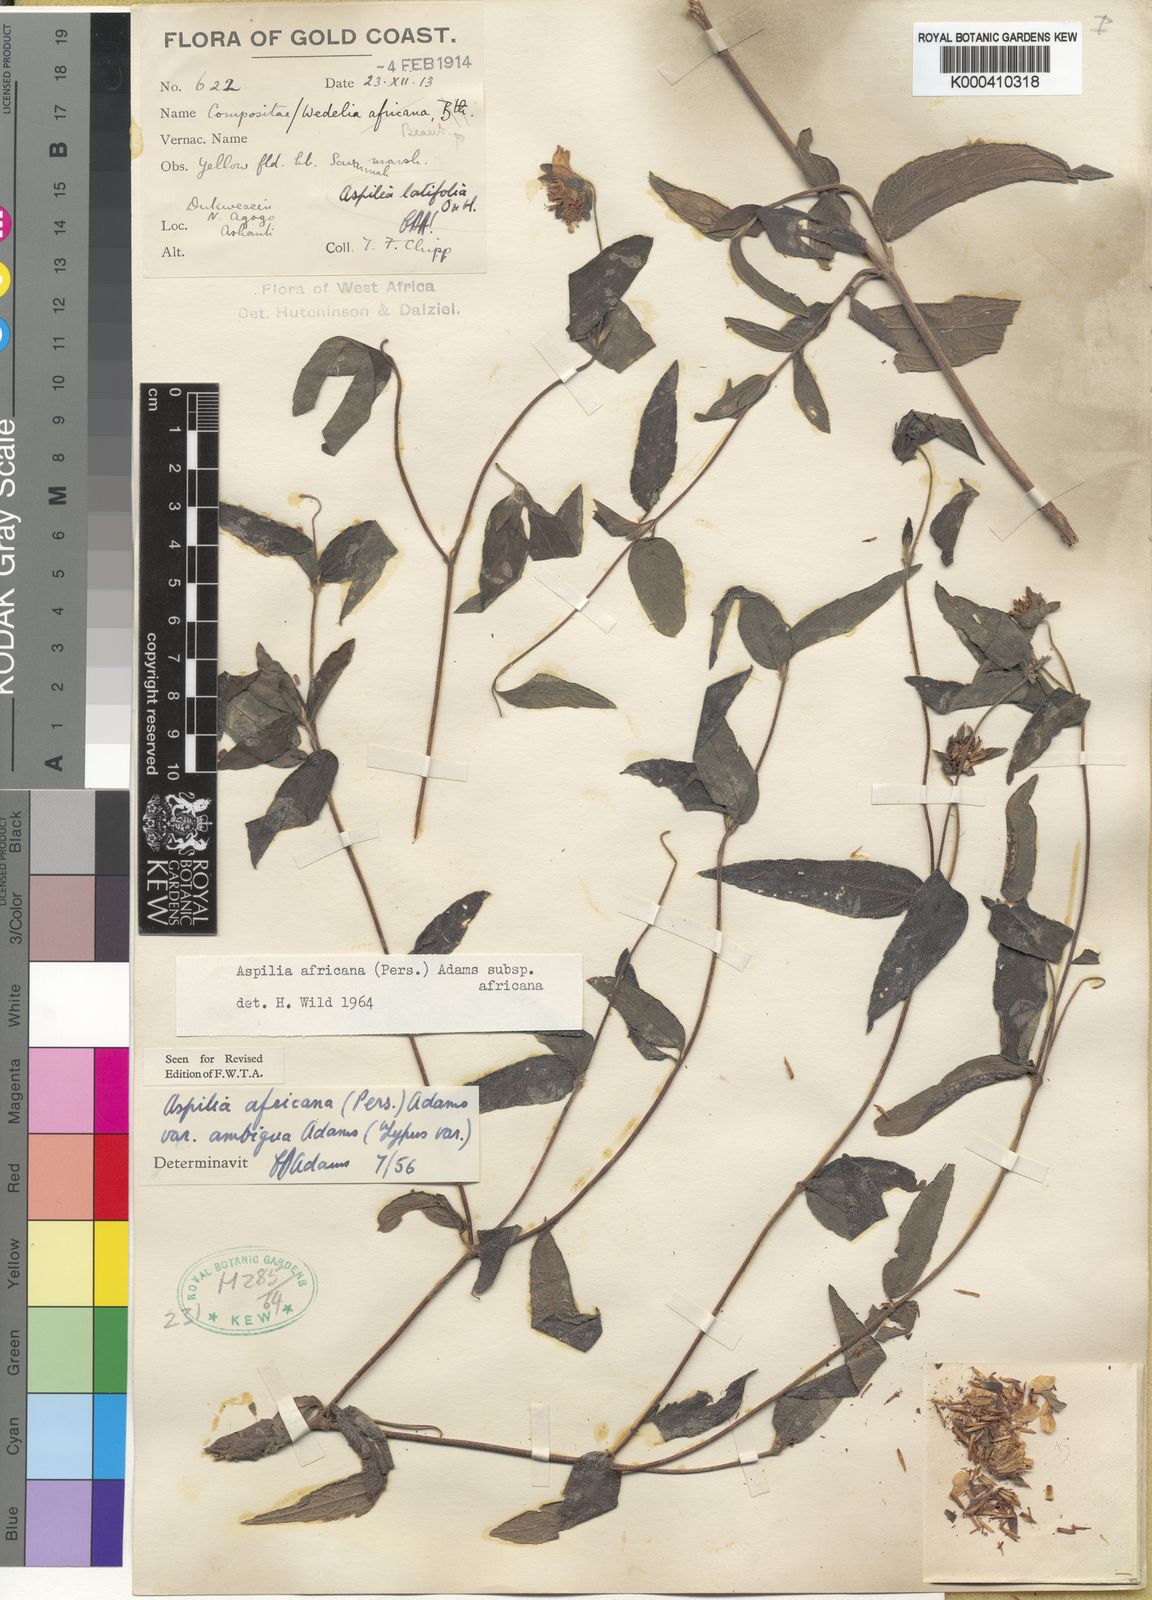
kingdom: Plantae
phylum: Tracheophyta
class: Magnoliopsida
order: Asterales
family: Asteraceae
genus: Aspilia
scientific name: Aspilia africana
